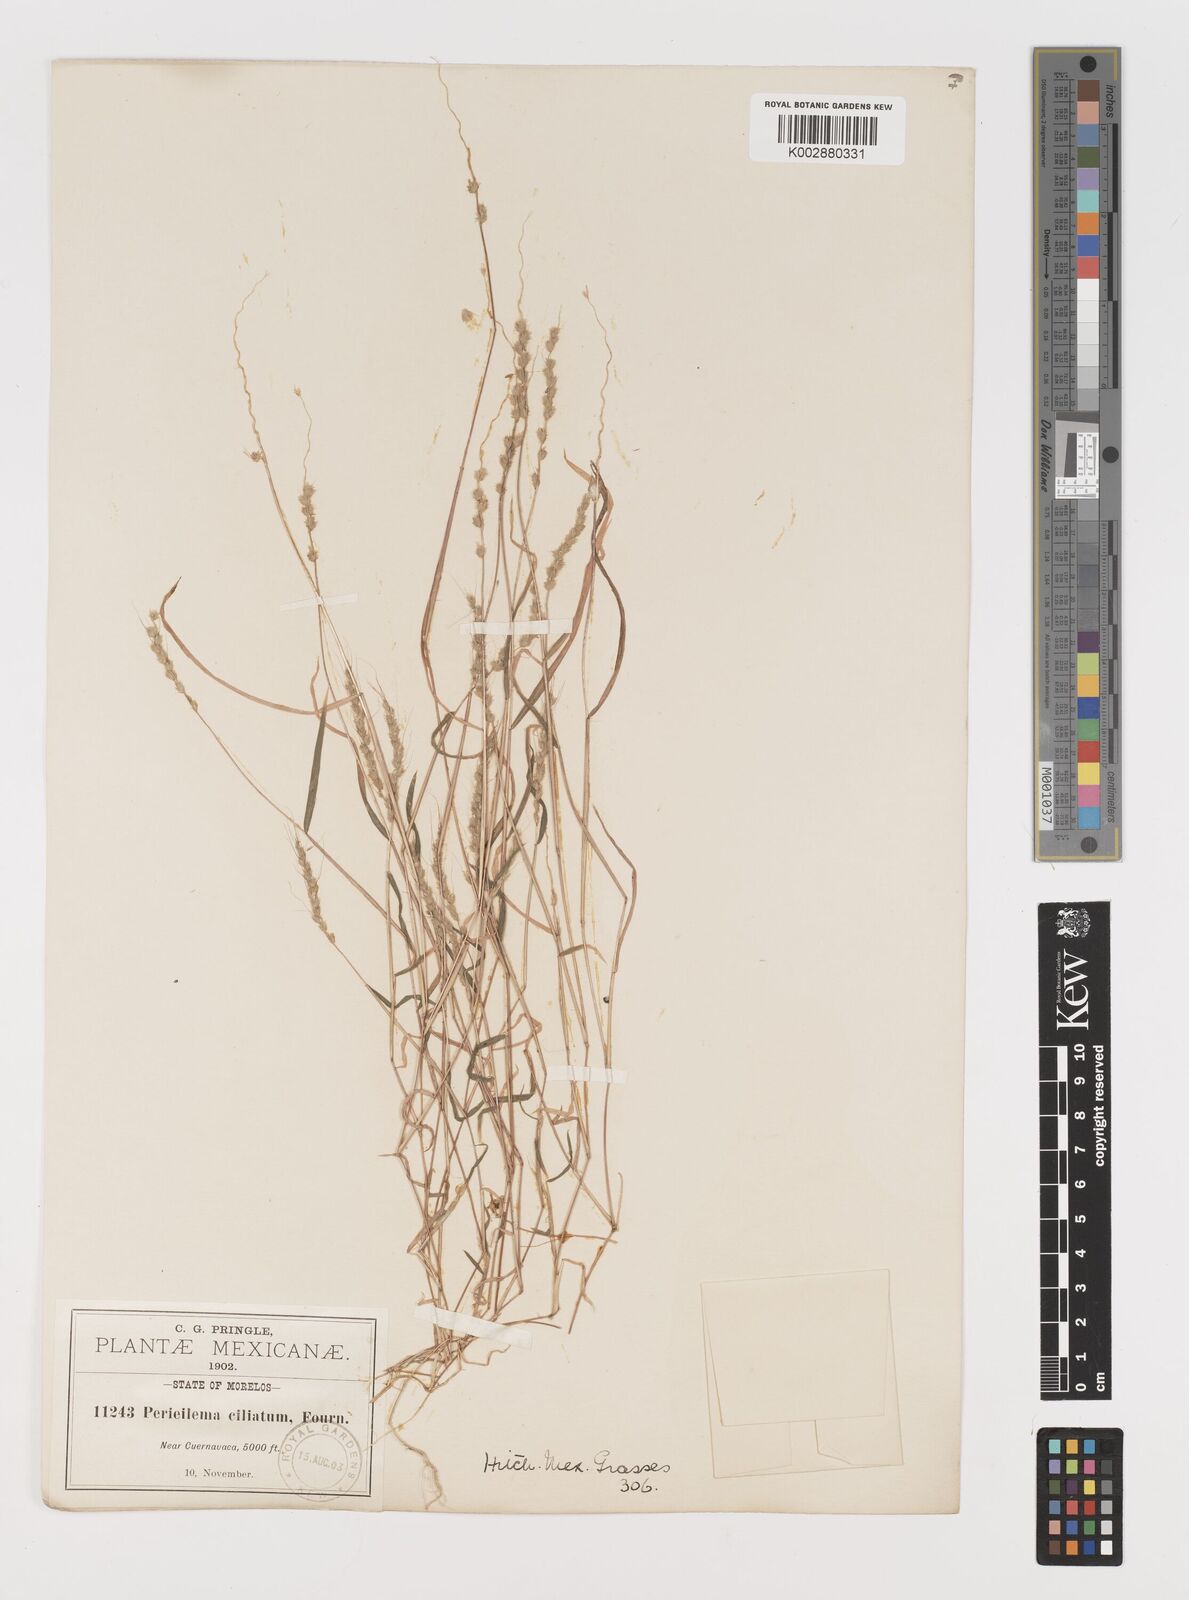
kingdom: Plantae
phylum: Tracheophyta
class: Liliopsida
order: Poales
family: Poaceae
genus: Muhlenbergia
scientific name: Muhlenbergia plumiseta
